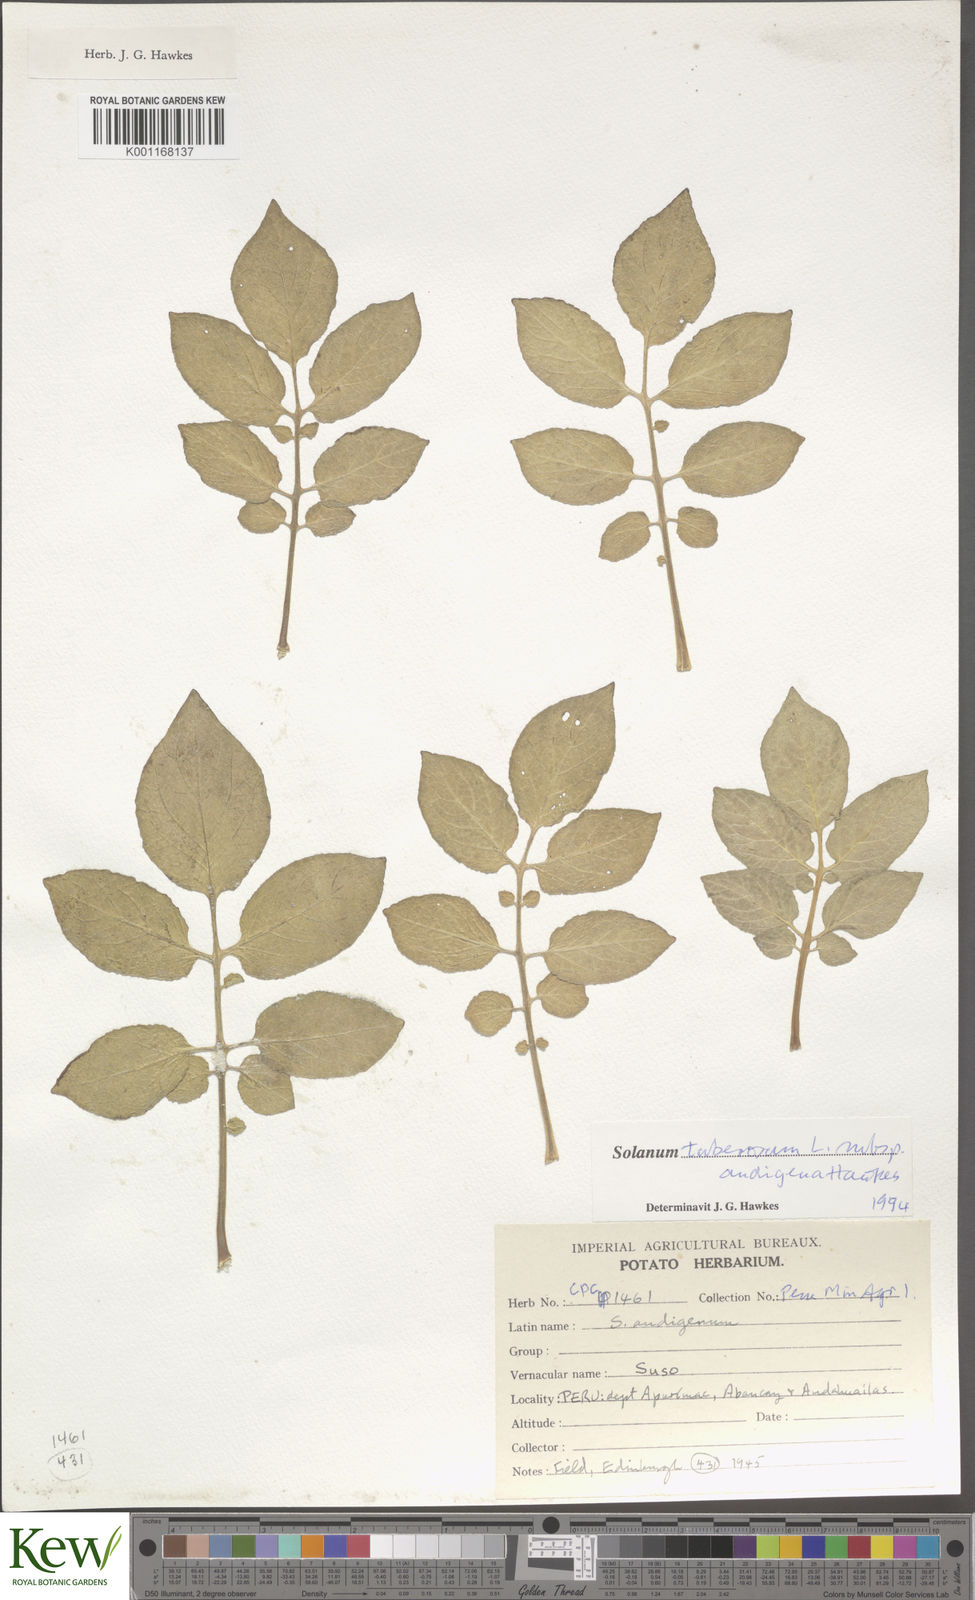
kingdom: Plantae
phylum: Tracheophyta
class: Magnoliopsida
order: Solanales
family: Solanaceae
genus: Solanum
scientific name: Solanum tuberosum
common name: Potato
